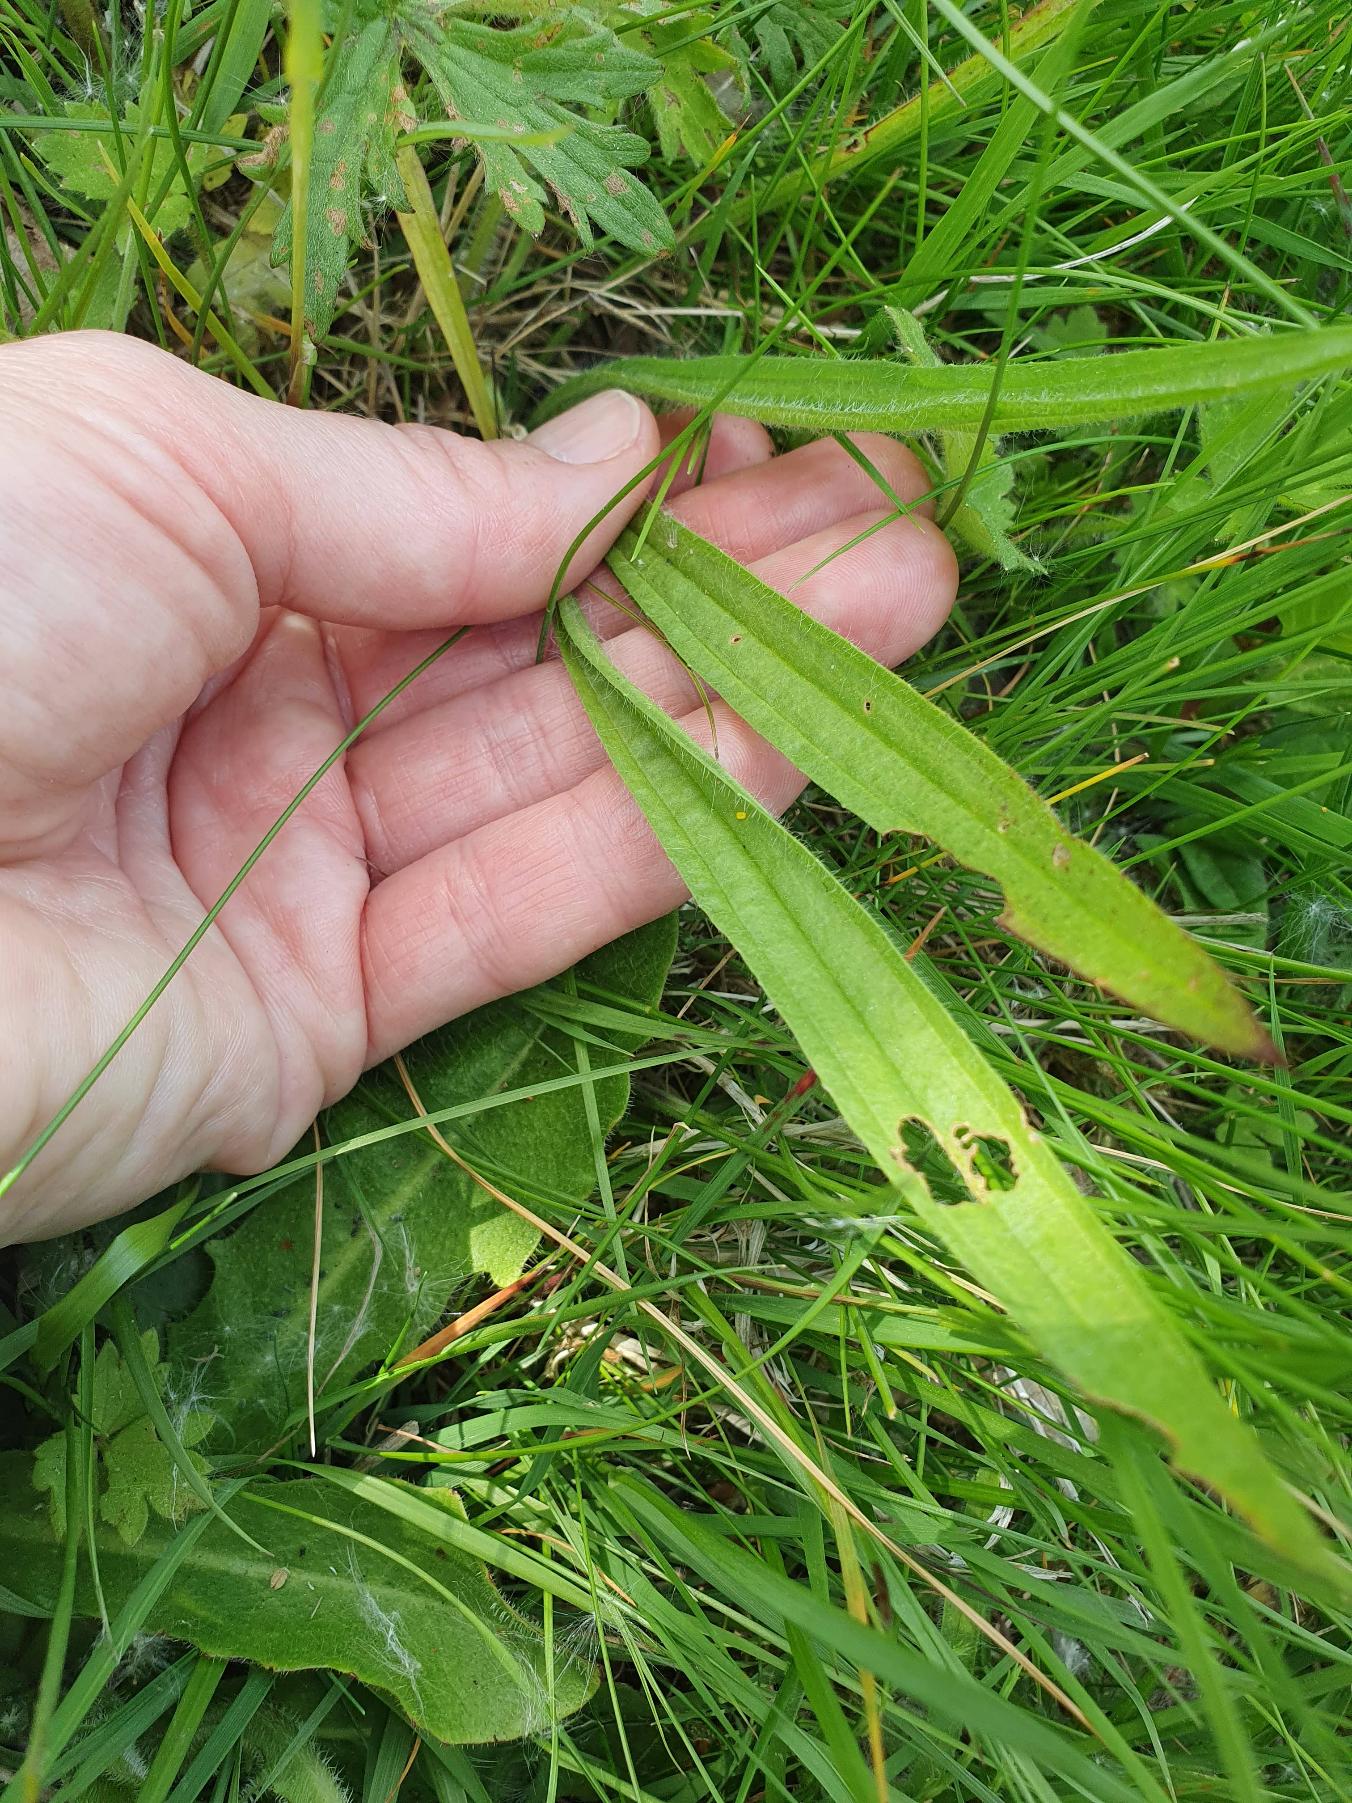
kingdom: Plantae
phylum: Tracheophyta
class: Magnoliopsida
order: Lamiales
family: Plantaginaceae
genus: Plantago
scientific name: Plantago lanceolata
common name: Lancet-vejbred
